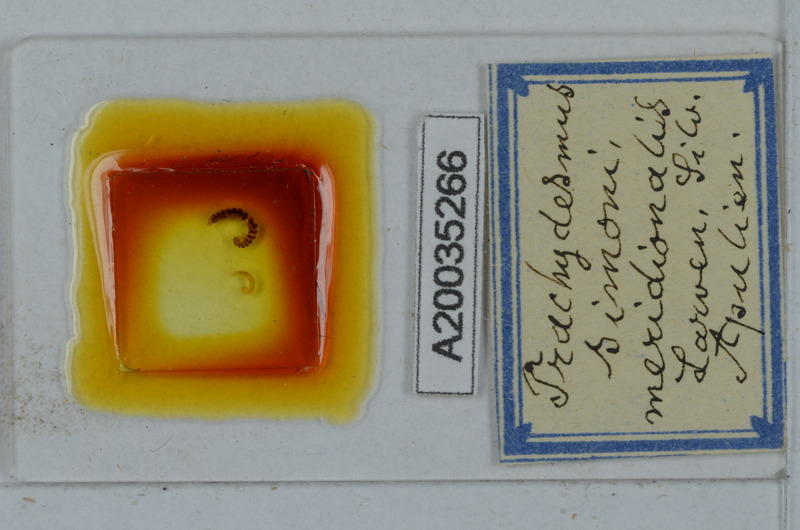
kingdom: Animalia
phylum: Arthropoda
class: Diplopoda
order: Polydesmida
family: Paradoxosomatidae
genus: Stosatea
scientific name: Stosatea granulata
